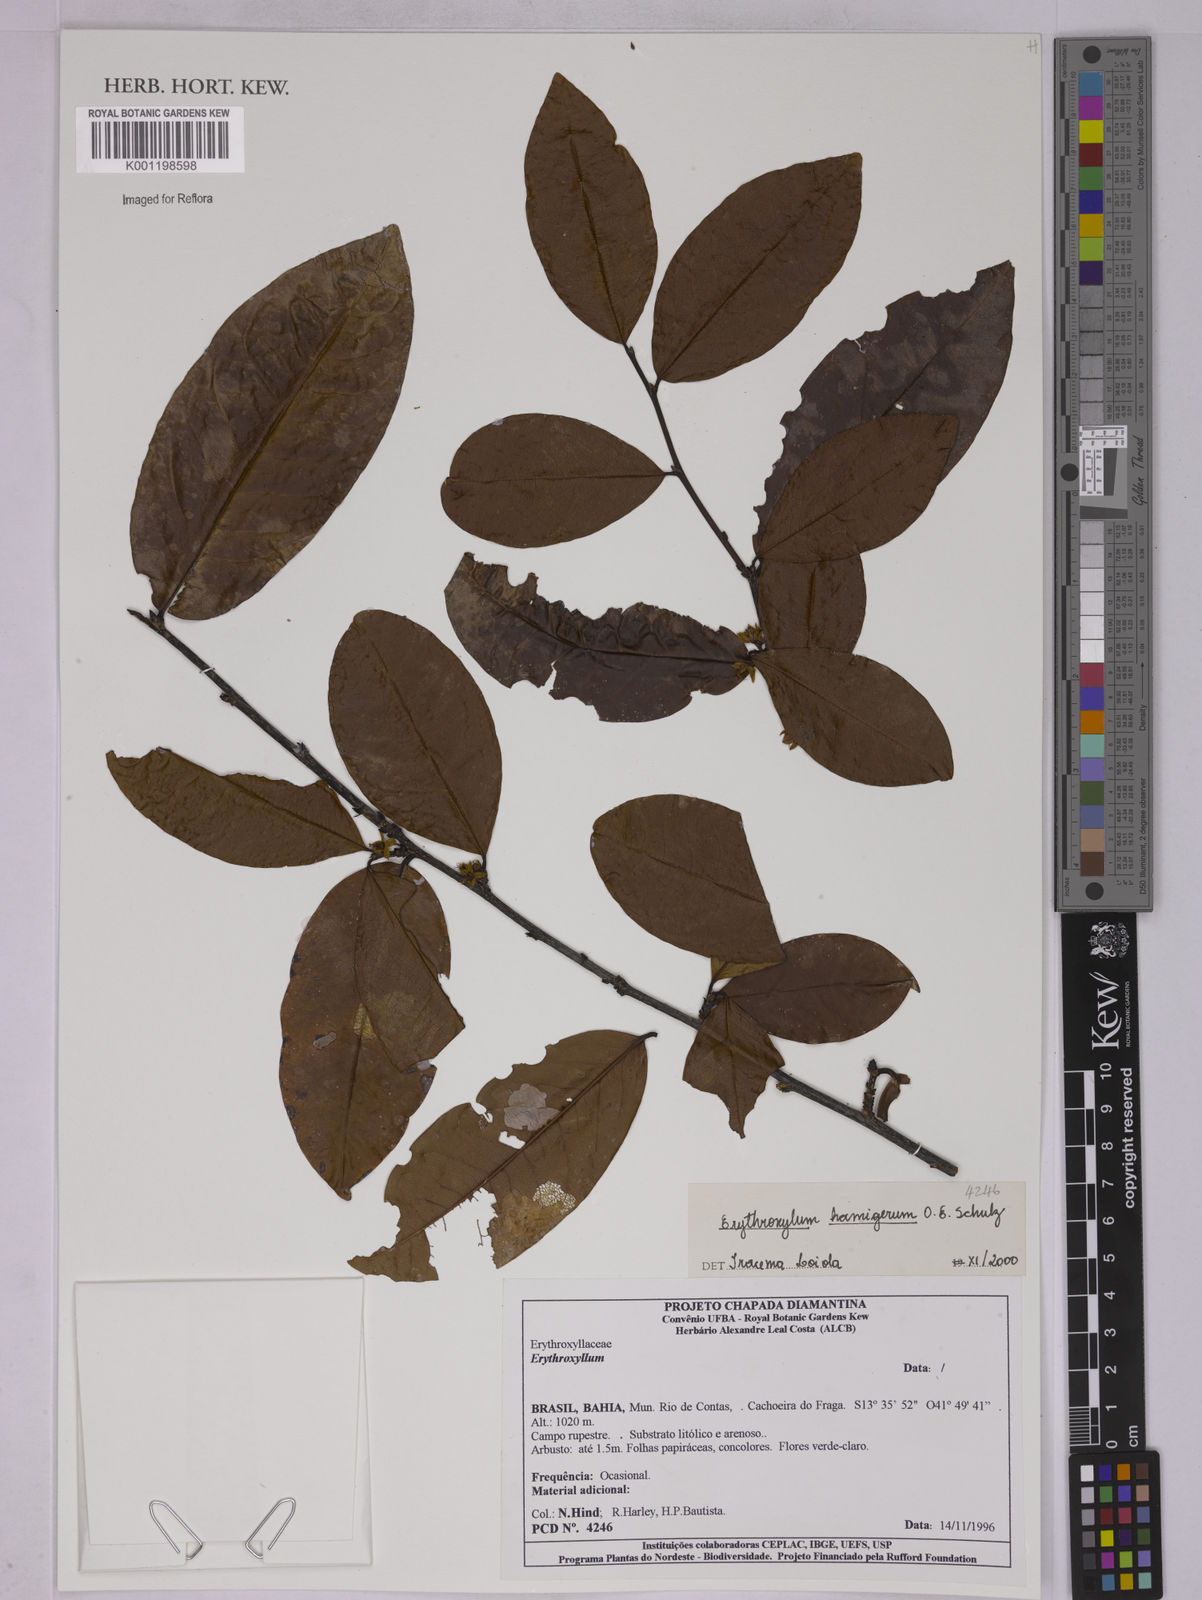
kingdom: Plantae
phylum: Tracheophyta
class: Magnoliopsida
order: Malpighiales
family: Erythroxylaceae
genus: Erythroxylum
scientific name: Erythroxylum hamigerum
